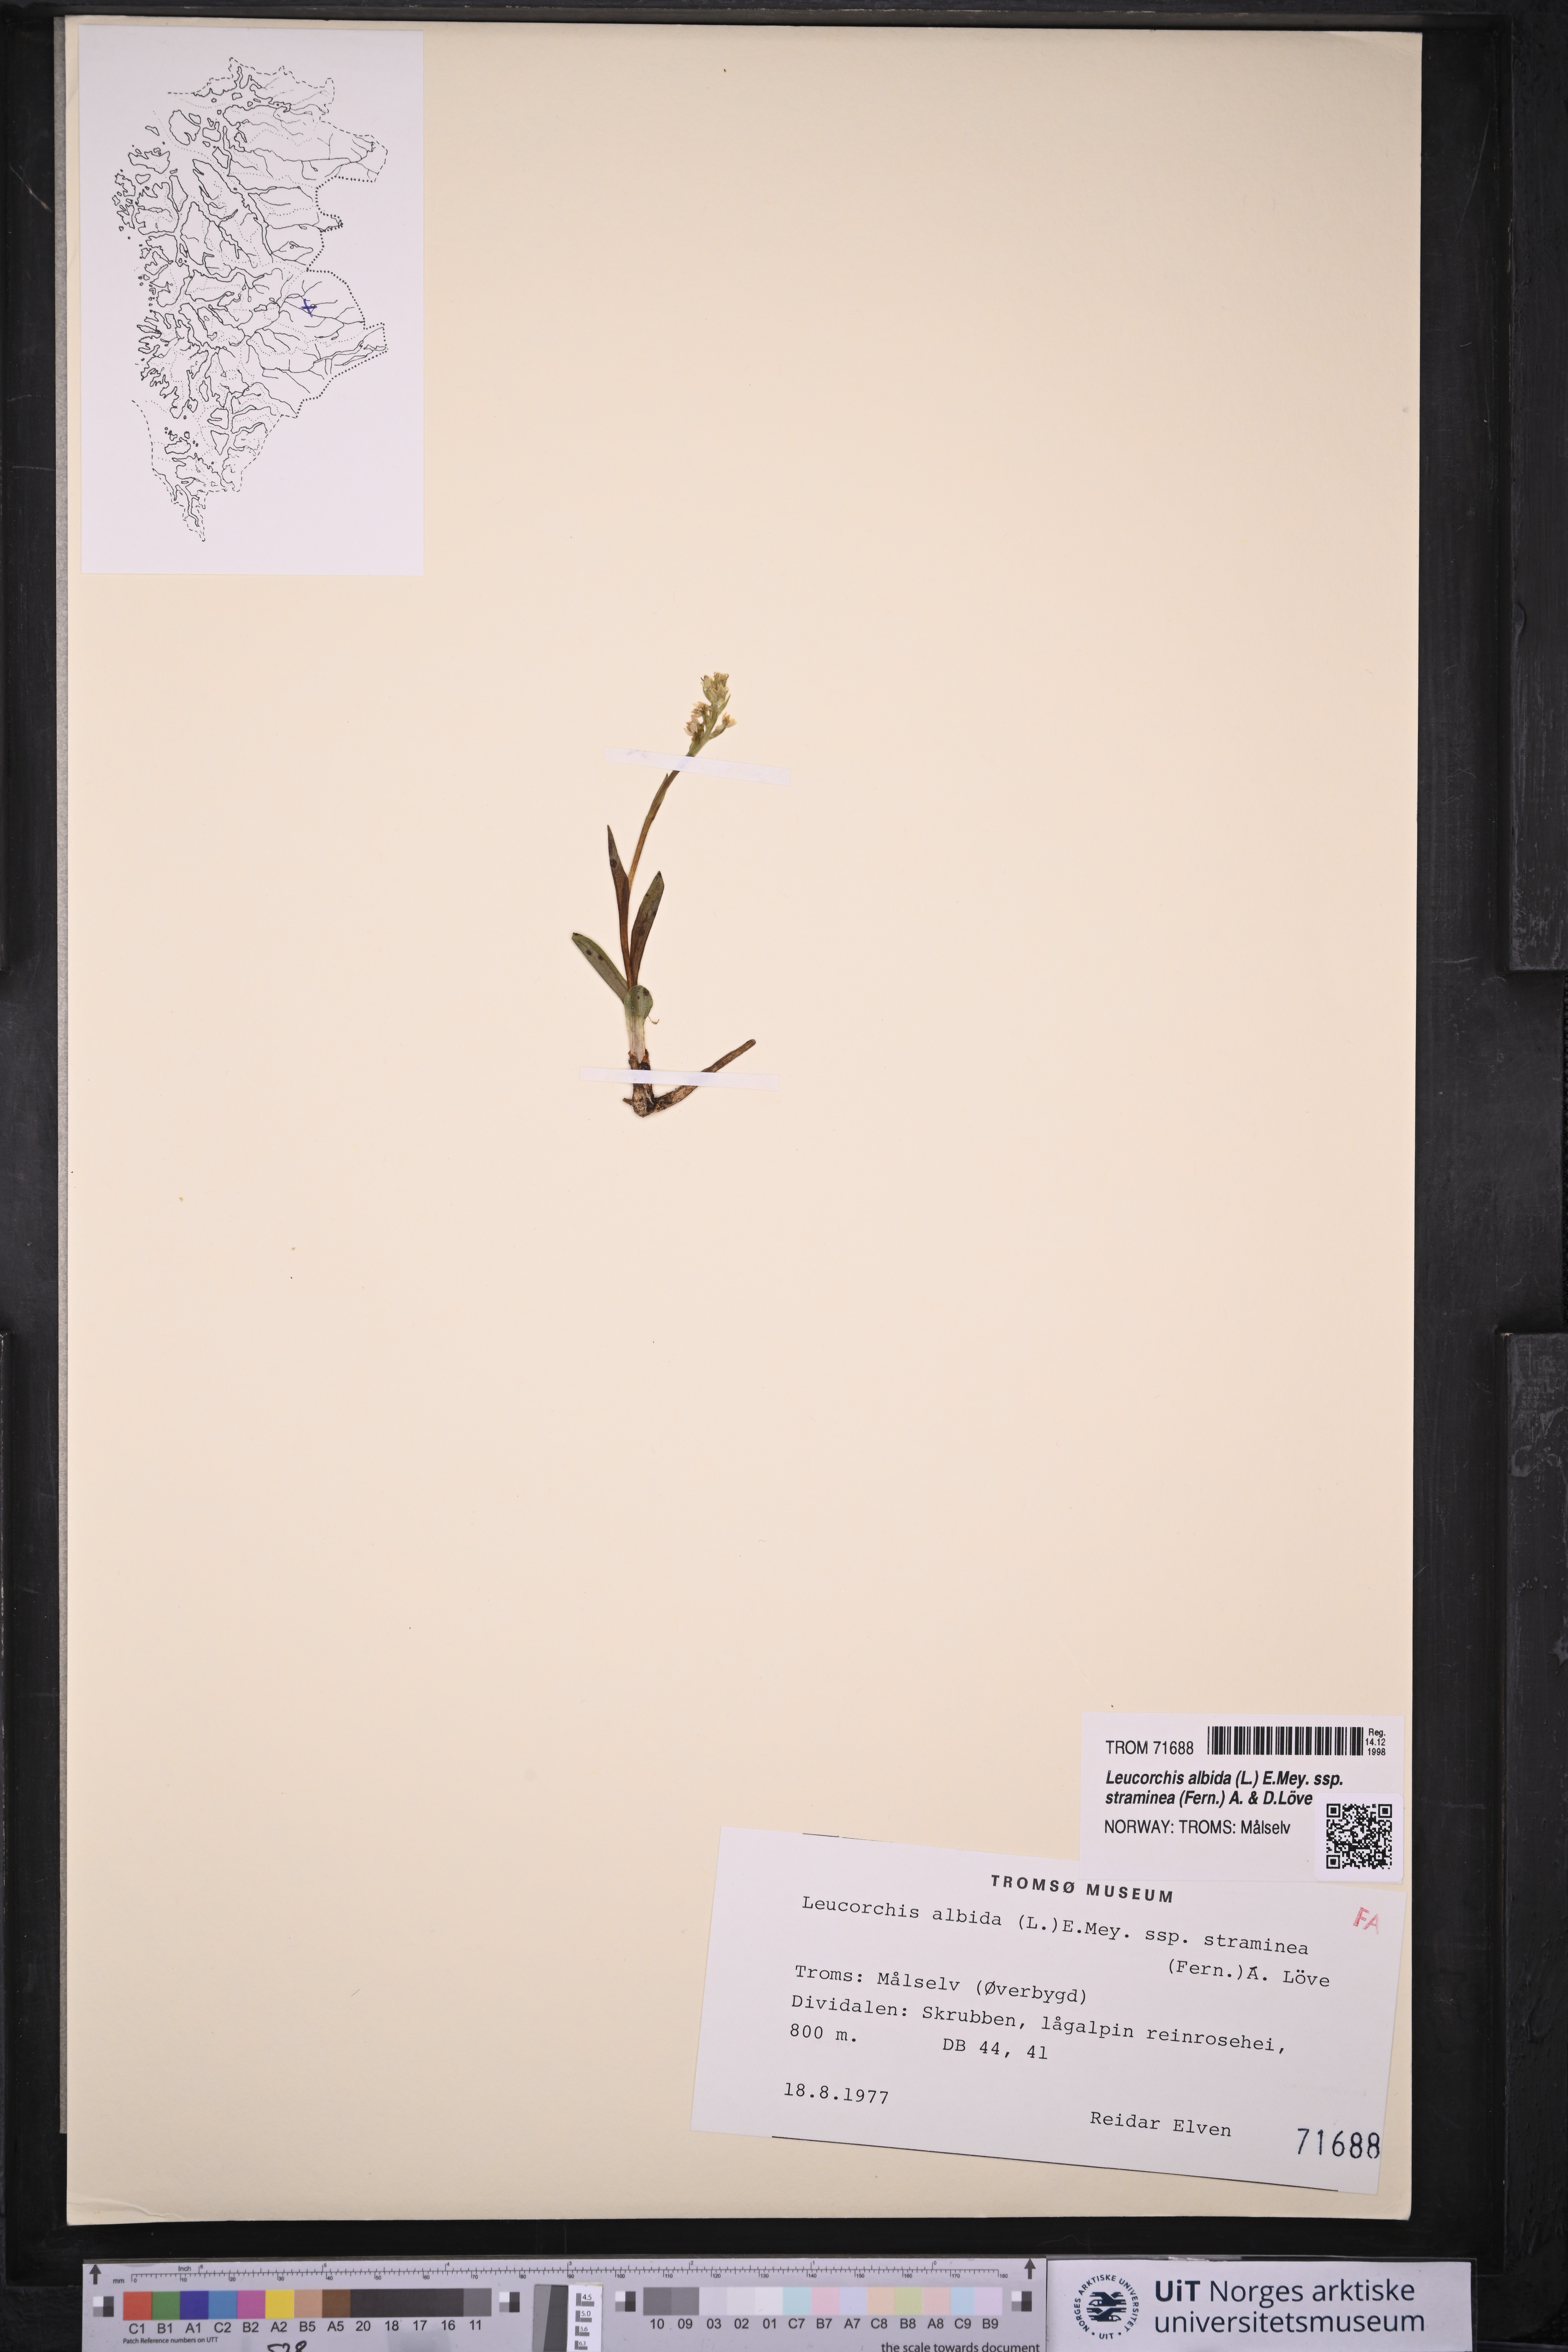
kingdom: Plantae
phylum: Tracheophyta
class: Liliopsida
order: Asparagales
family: Orchidaceae
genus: Pseudorchis
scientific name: Pseudorchis straminea
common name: Vanilla-scented bog orchid
